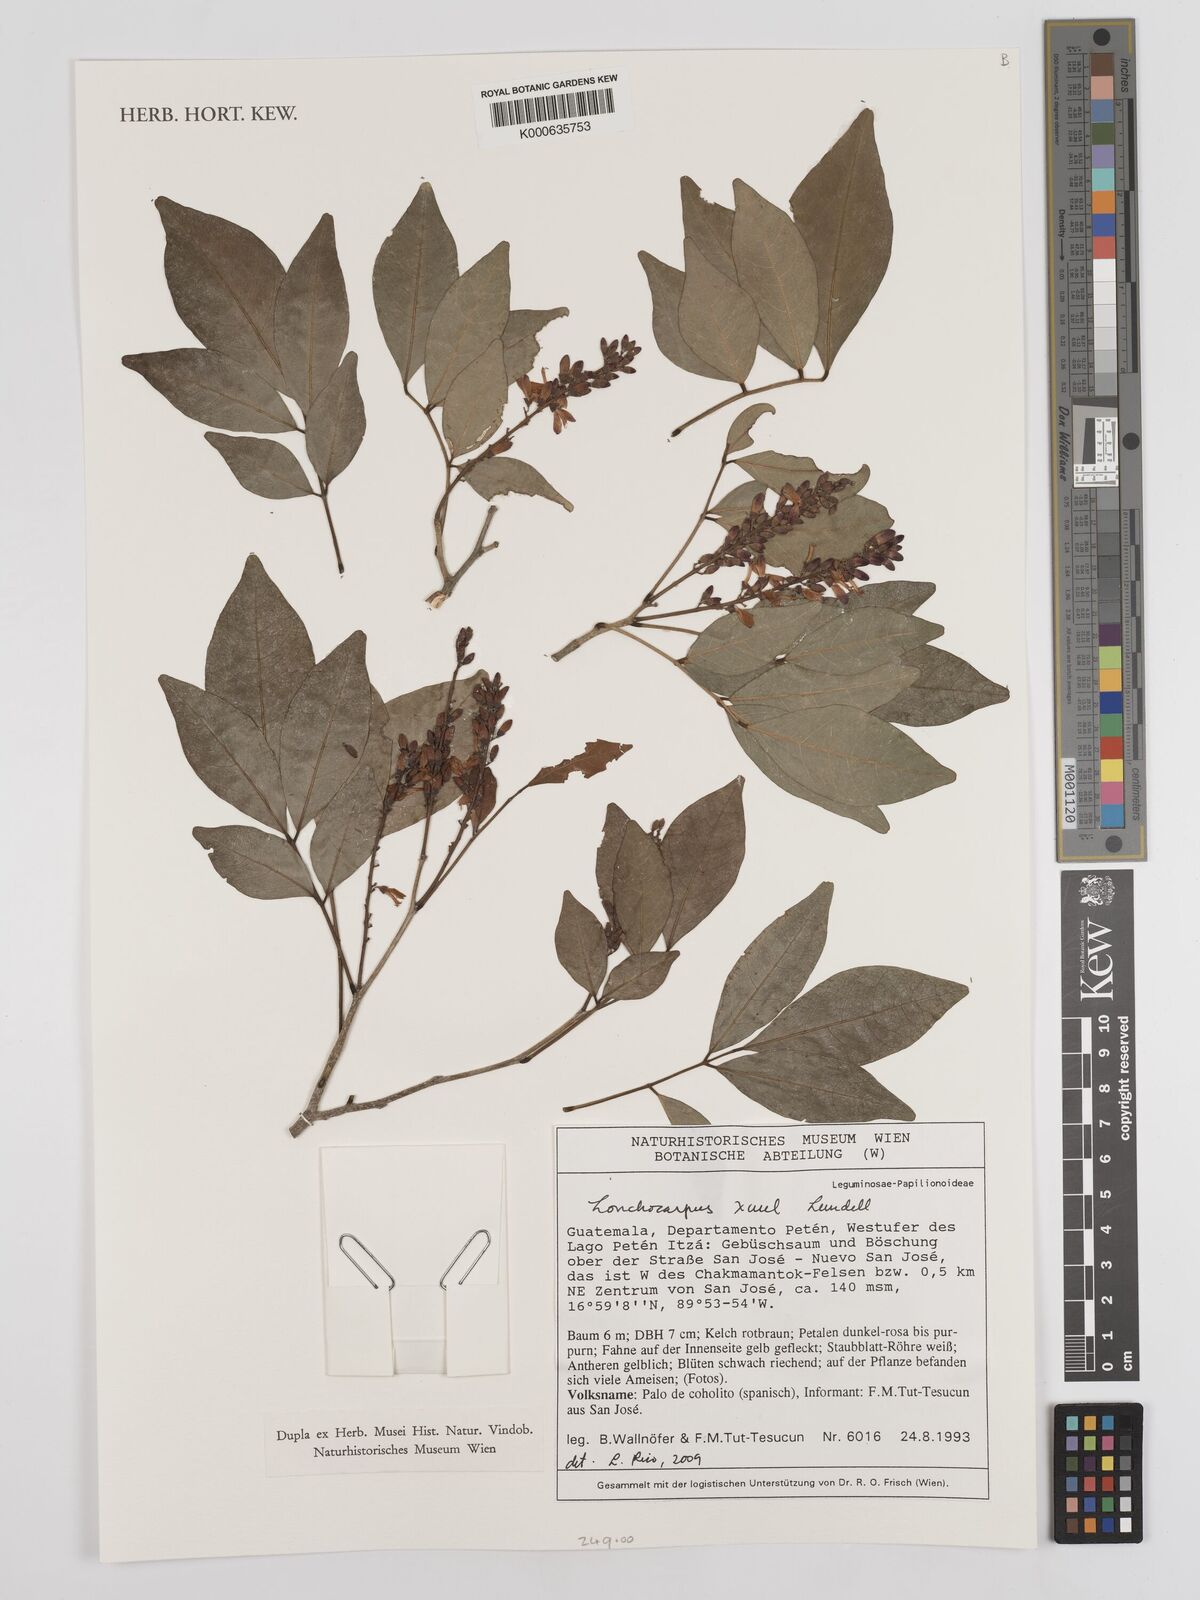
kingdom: Plantae
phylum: Tracheophyta
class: Magnoliopsida
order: Fabales
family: Fabaceae
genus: Lonchocarpus
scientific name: Lonchocarpus guatemalensis
